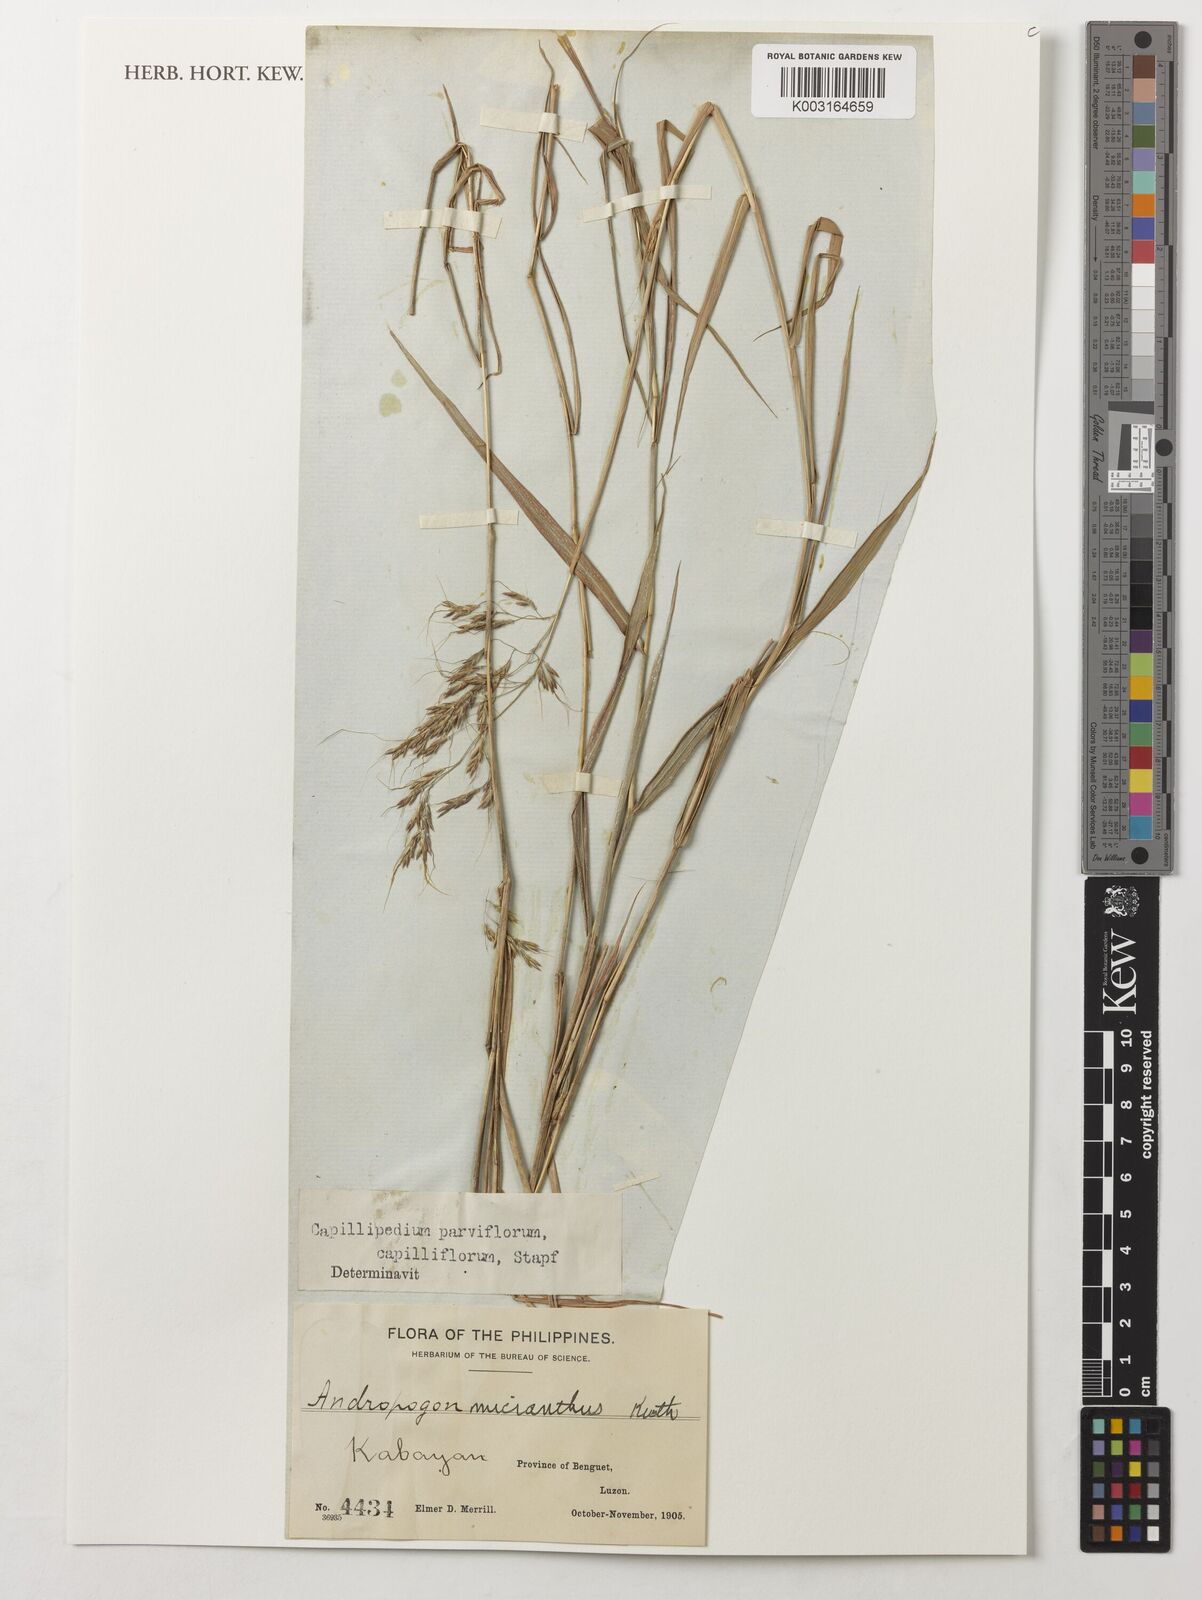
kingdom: Plantae
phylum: Tracheophyta
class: Liliopsida
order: Poales
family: Poaceae
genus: Capillipedium
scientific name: Capillipedium parviflorum
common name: Golden-beard
